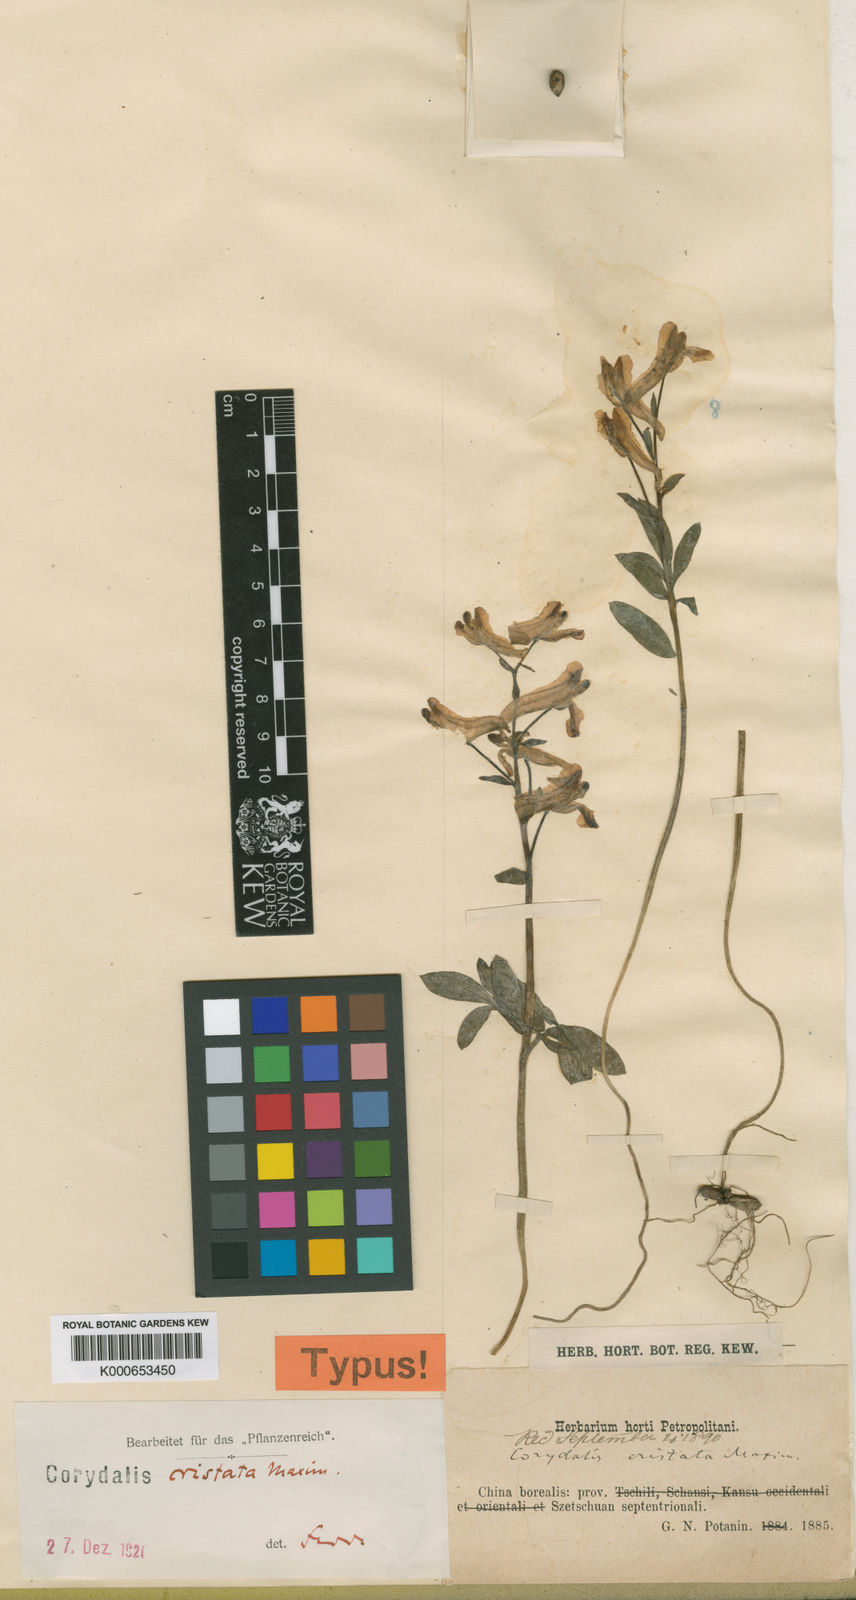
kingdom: Plantae
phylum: Tracheophyta
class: Magnoliopsida
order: Ranunculales
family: Papaveraceae
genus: Corydalis
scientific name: Corydalis cristata
